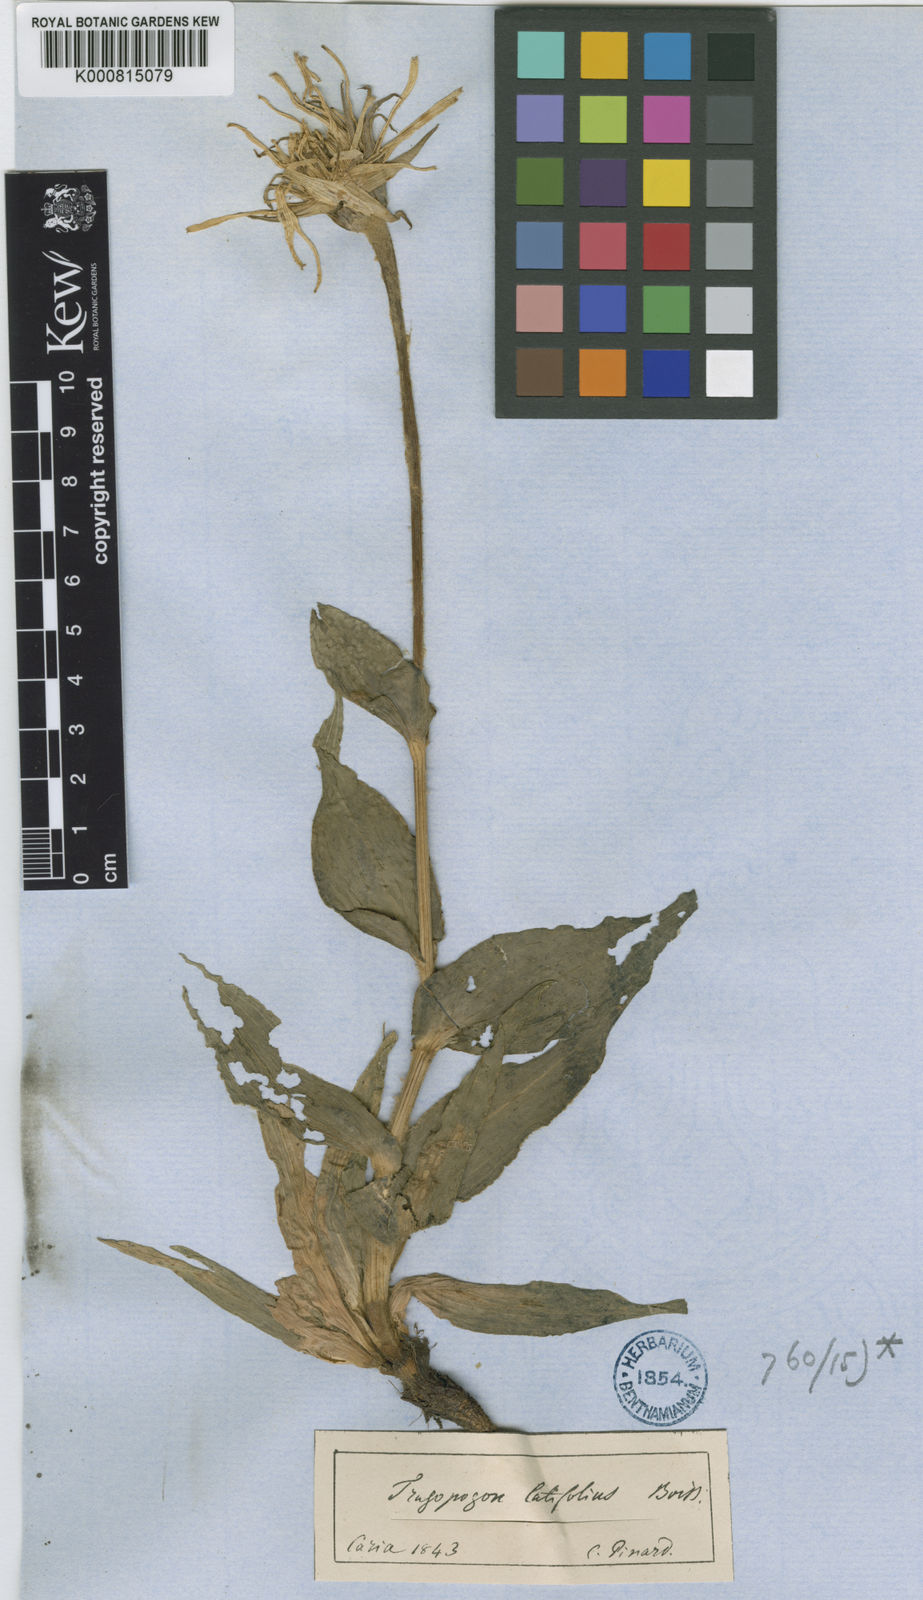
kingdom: Plantae
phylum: Tracheophyta
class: Magnoliopsida
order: Asterales
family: Asteraceae
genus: Tragopogon
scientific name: Tragopogon latifolius
